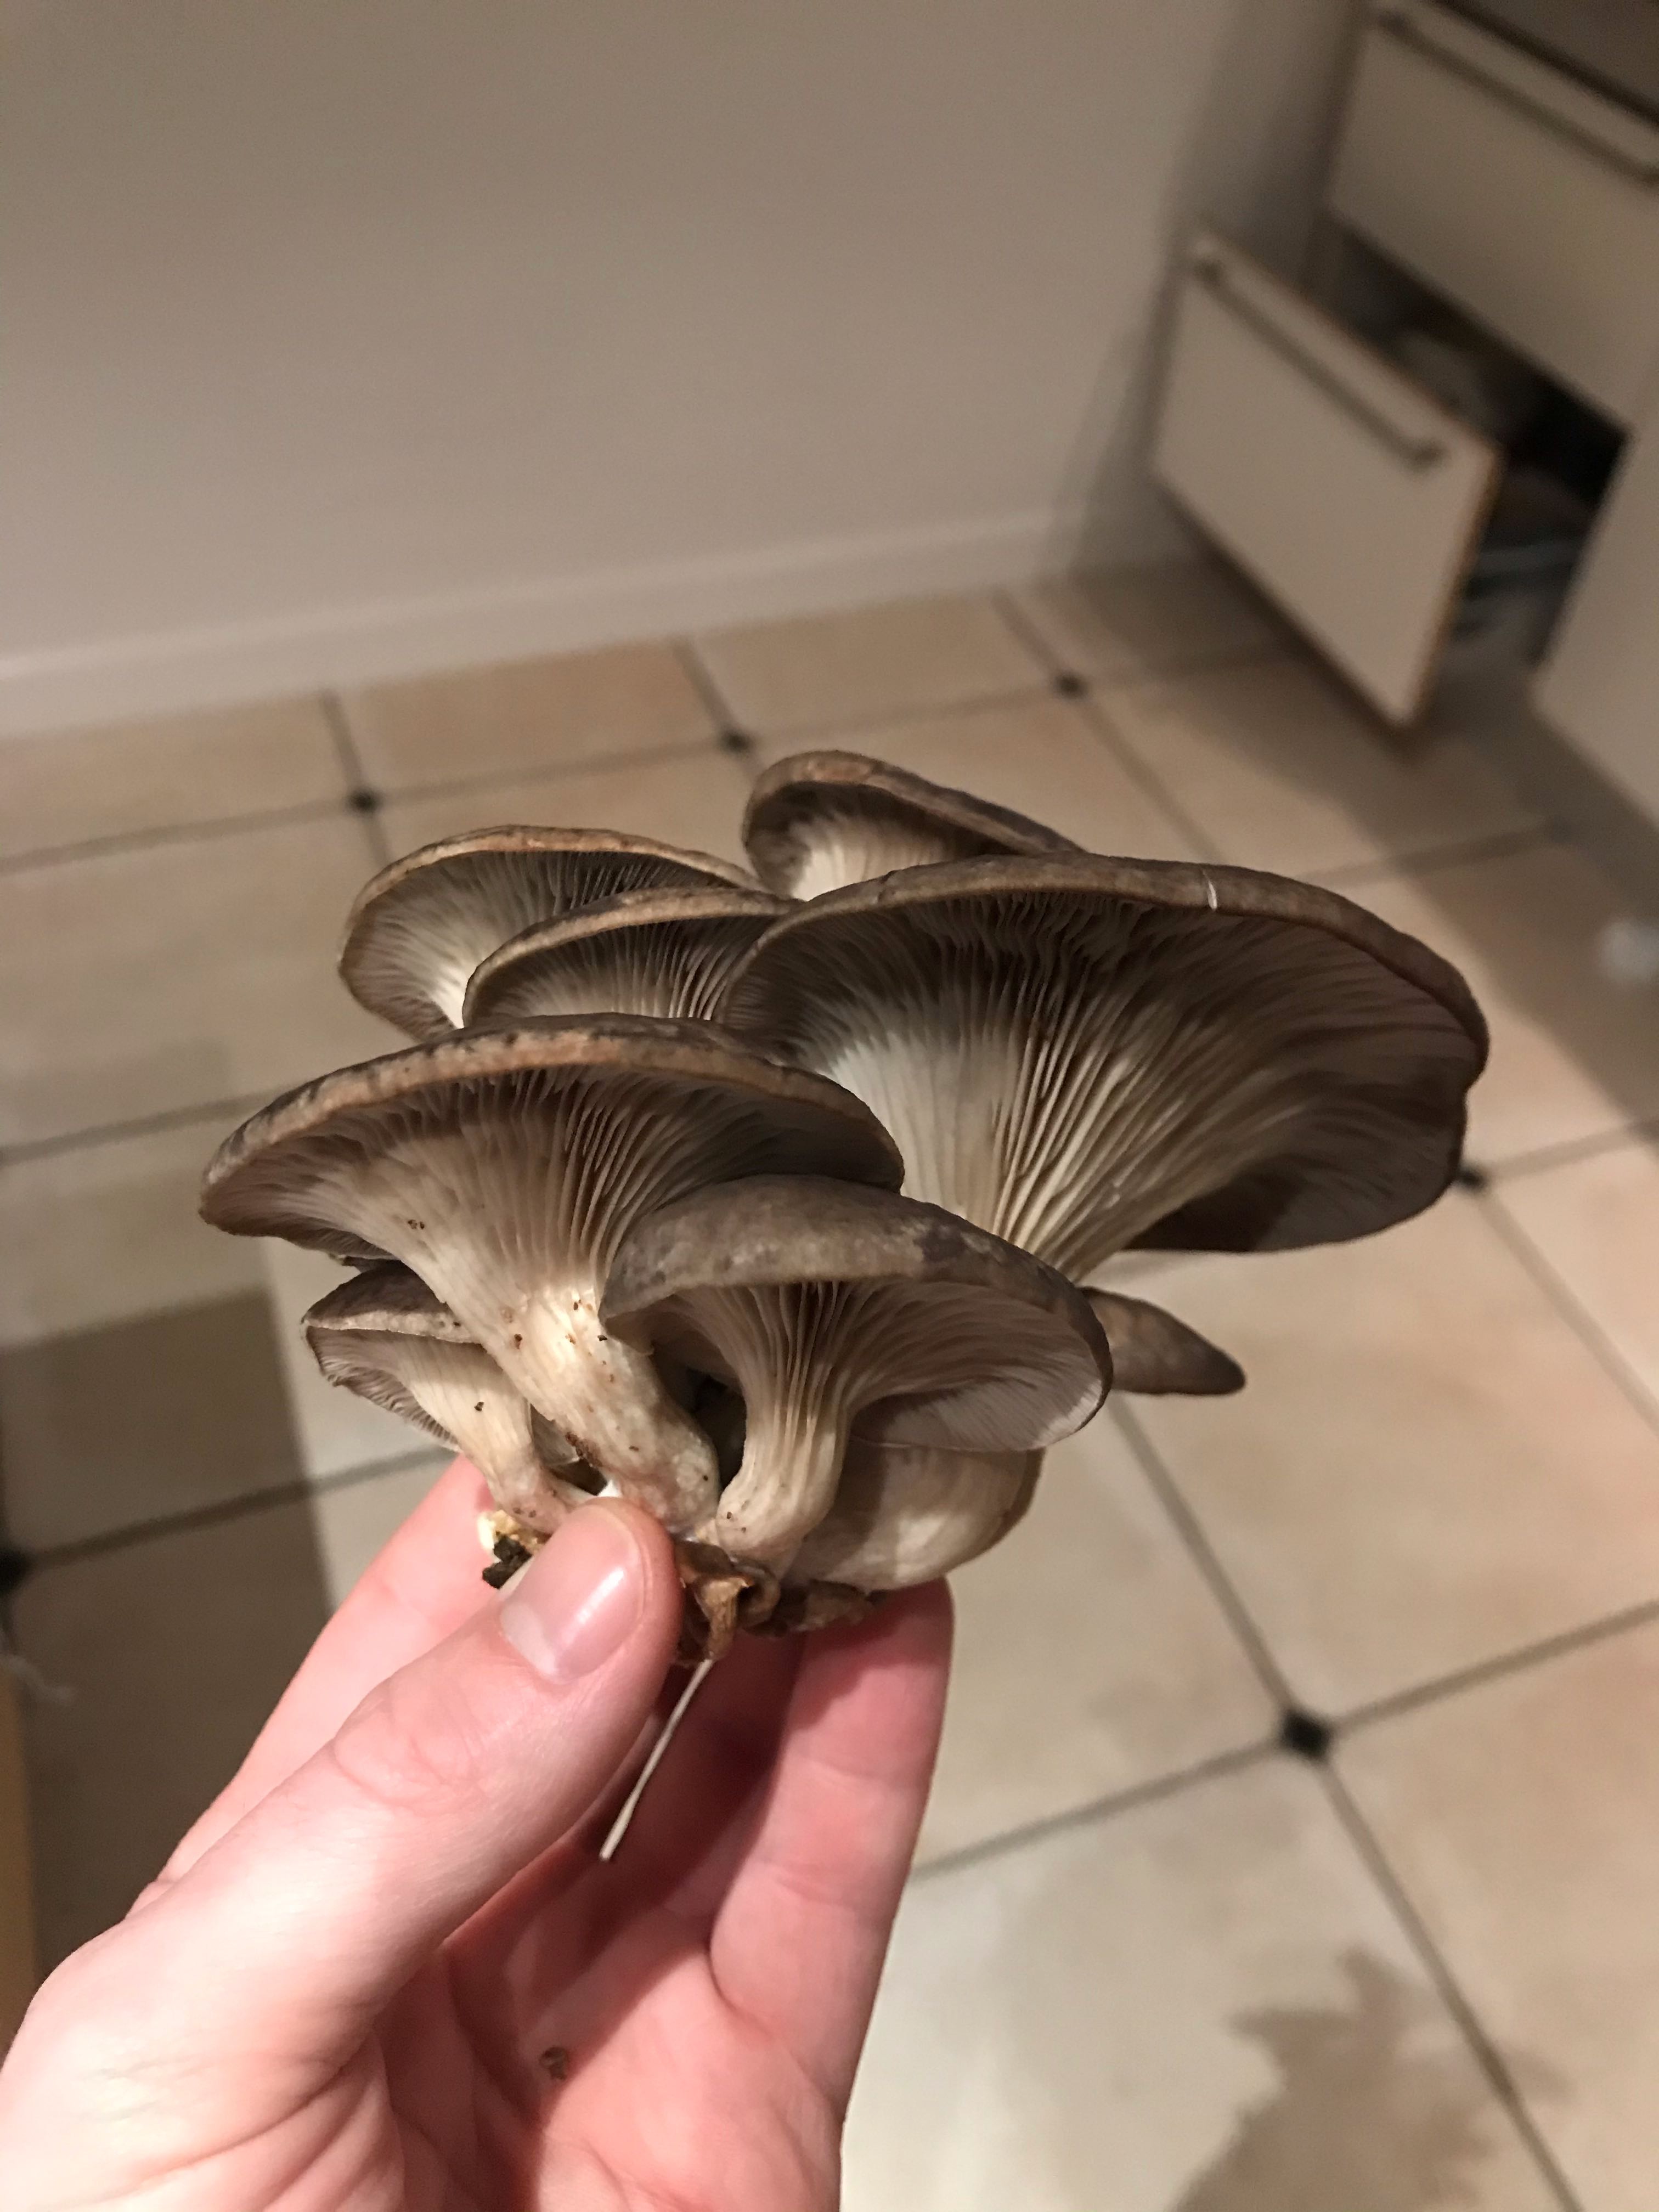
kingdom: Fungi
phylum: Basidiomycota
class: Agaricomycetes
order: Agaricales
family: Pleurotaceae
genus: Pleurotus
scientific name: Pleurotus ostreatus
